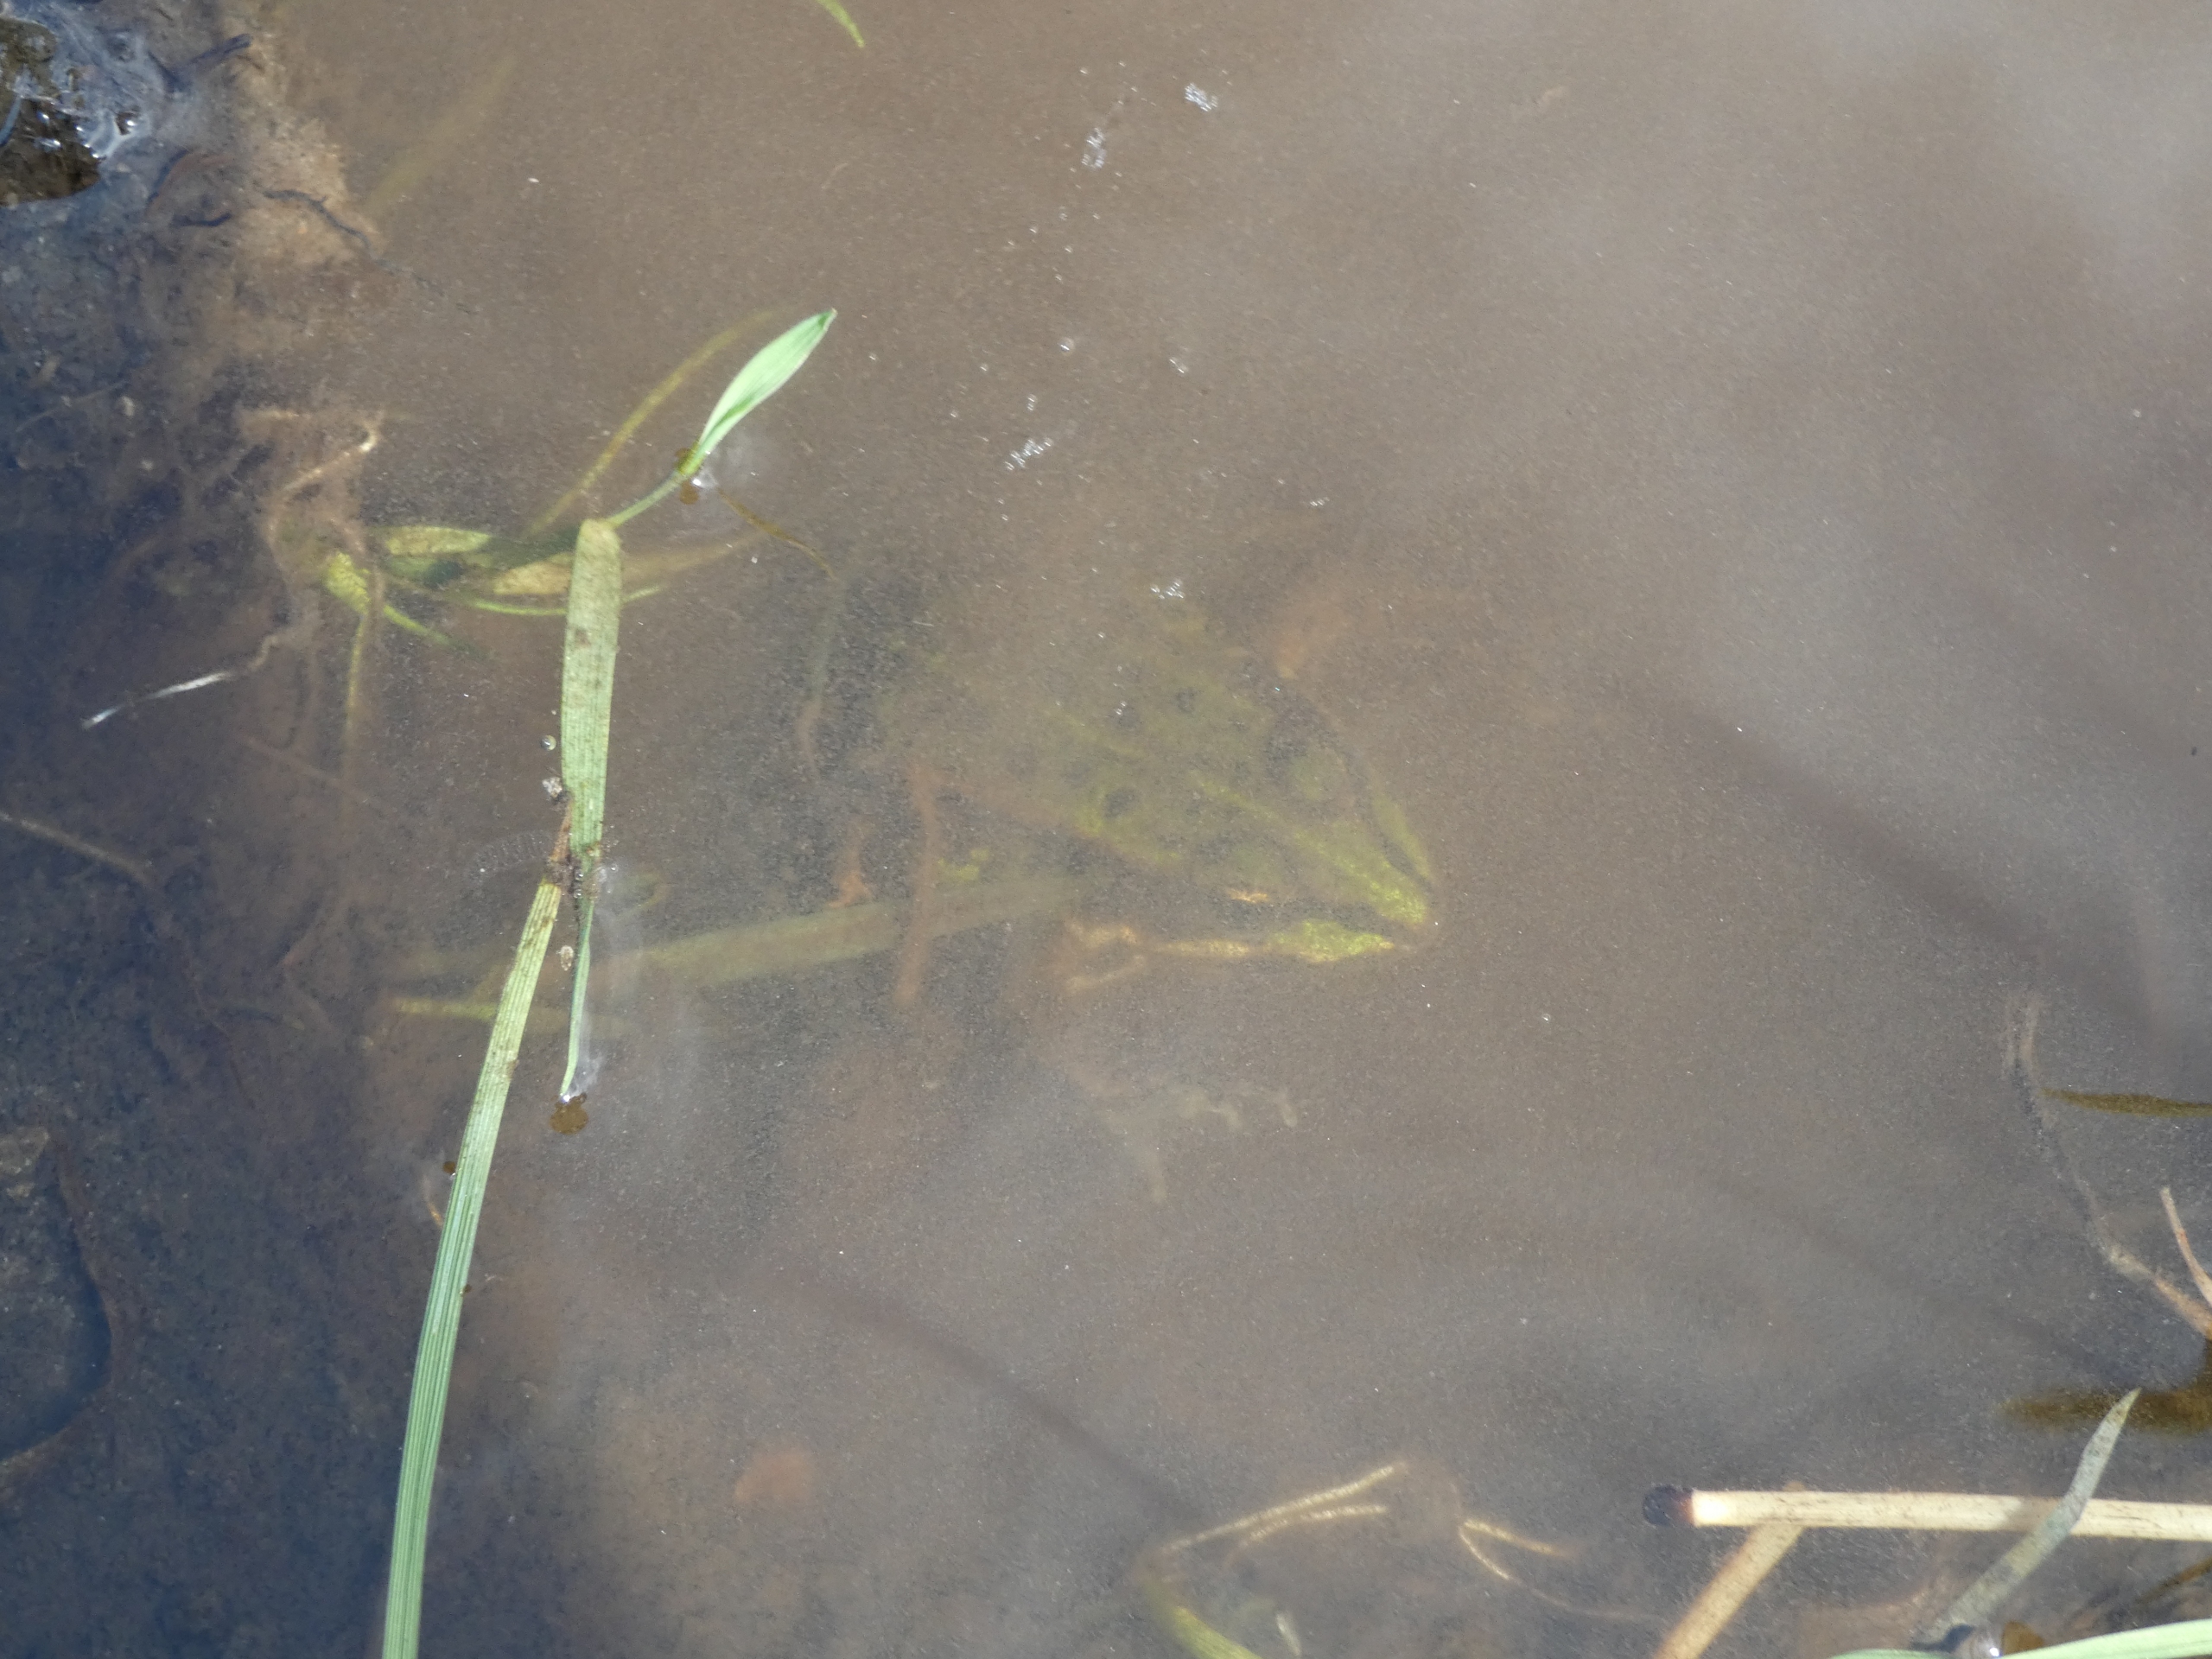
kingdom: Animalia
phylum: Chordata
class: Amphibia
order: Anura
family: Ranidae
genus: Pelophylax
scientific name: Pelophylax lessonae
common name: Grøn frø
